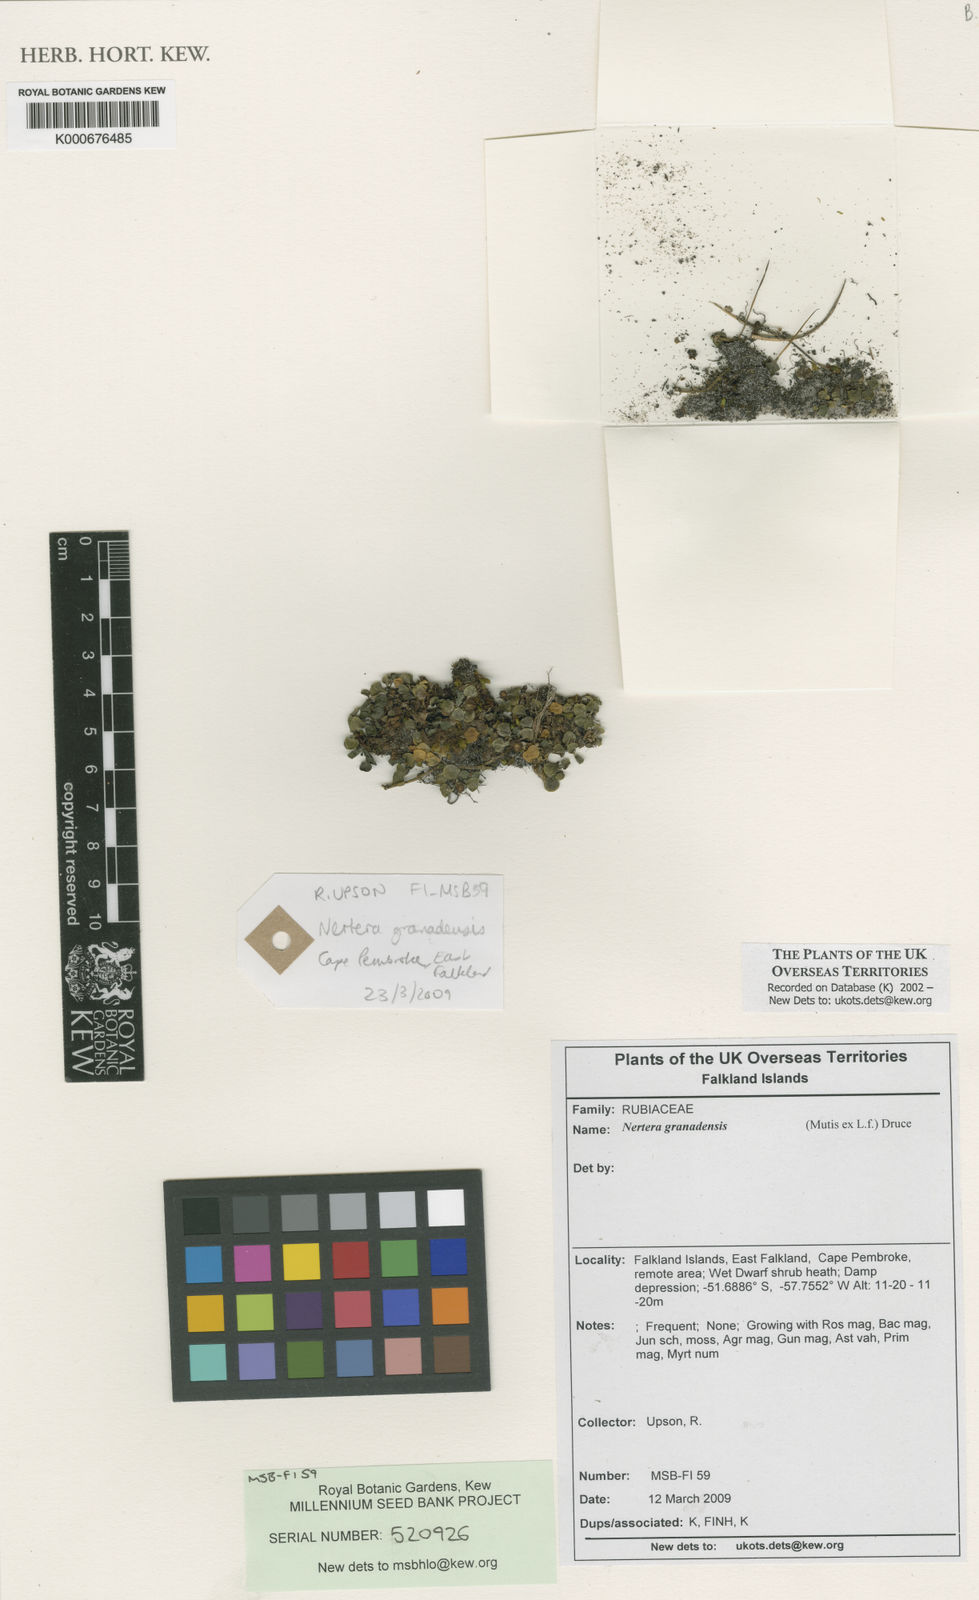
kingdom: Plantae
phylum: Tracheophyta
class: Magnoliopsida
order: Gentianales
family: Rubiaceae
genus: Nertera
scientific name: Nertera granadensis
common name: Beadplant
